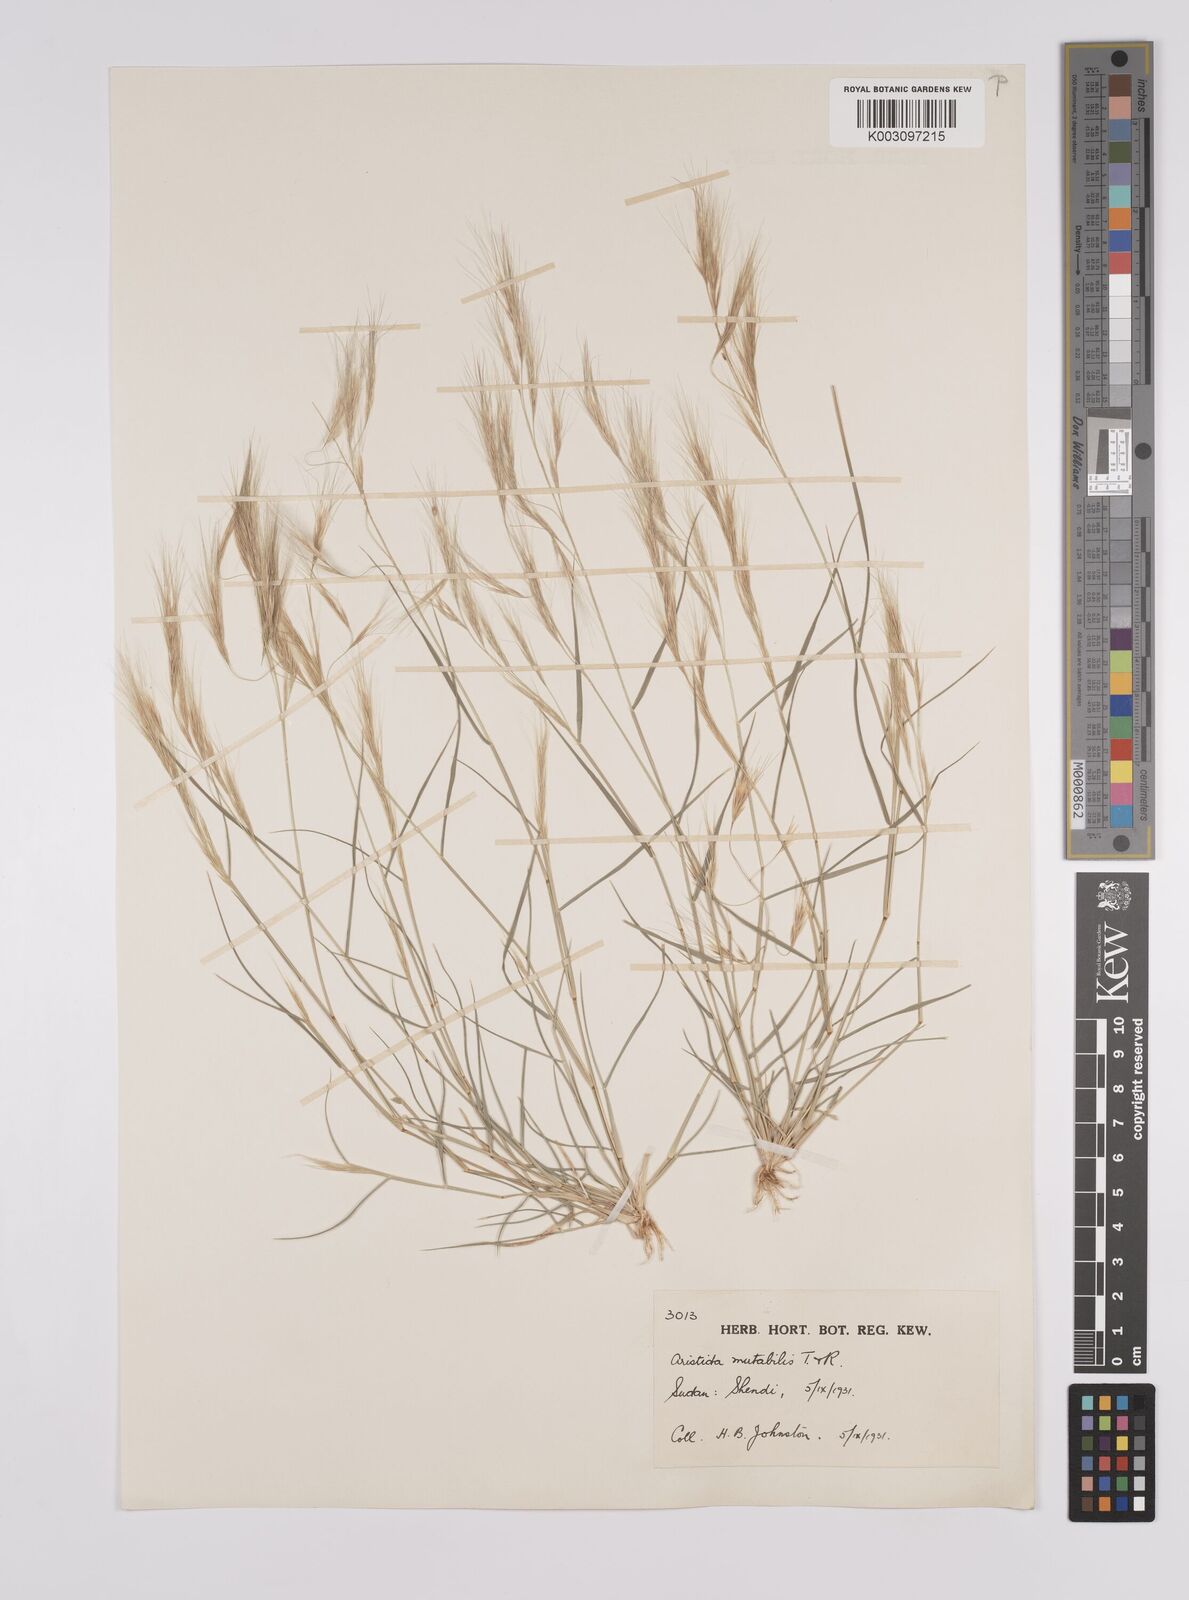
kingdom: Plantae
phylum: Tracheophyta
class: Liliopsida
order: Poales
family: Poaceae
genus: Aristida
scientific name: Aristida mutabilis
